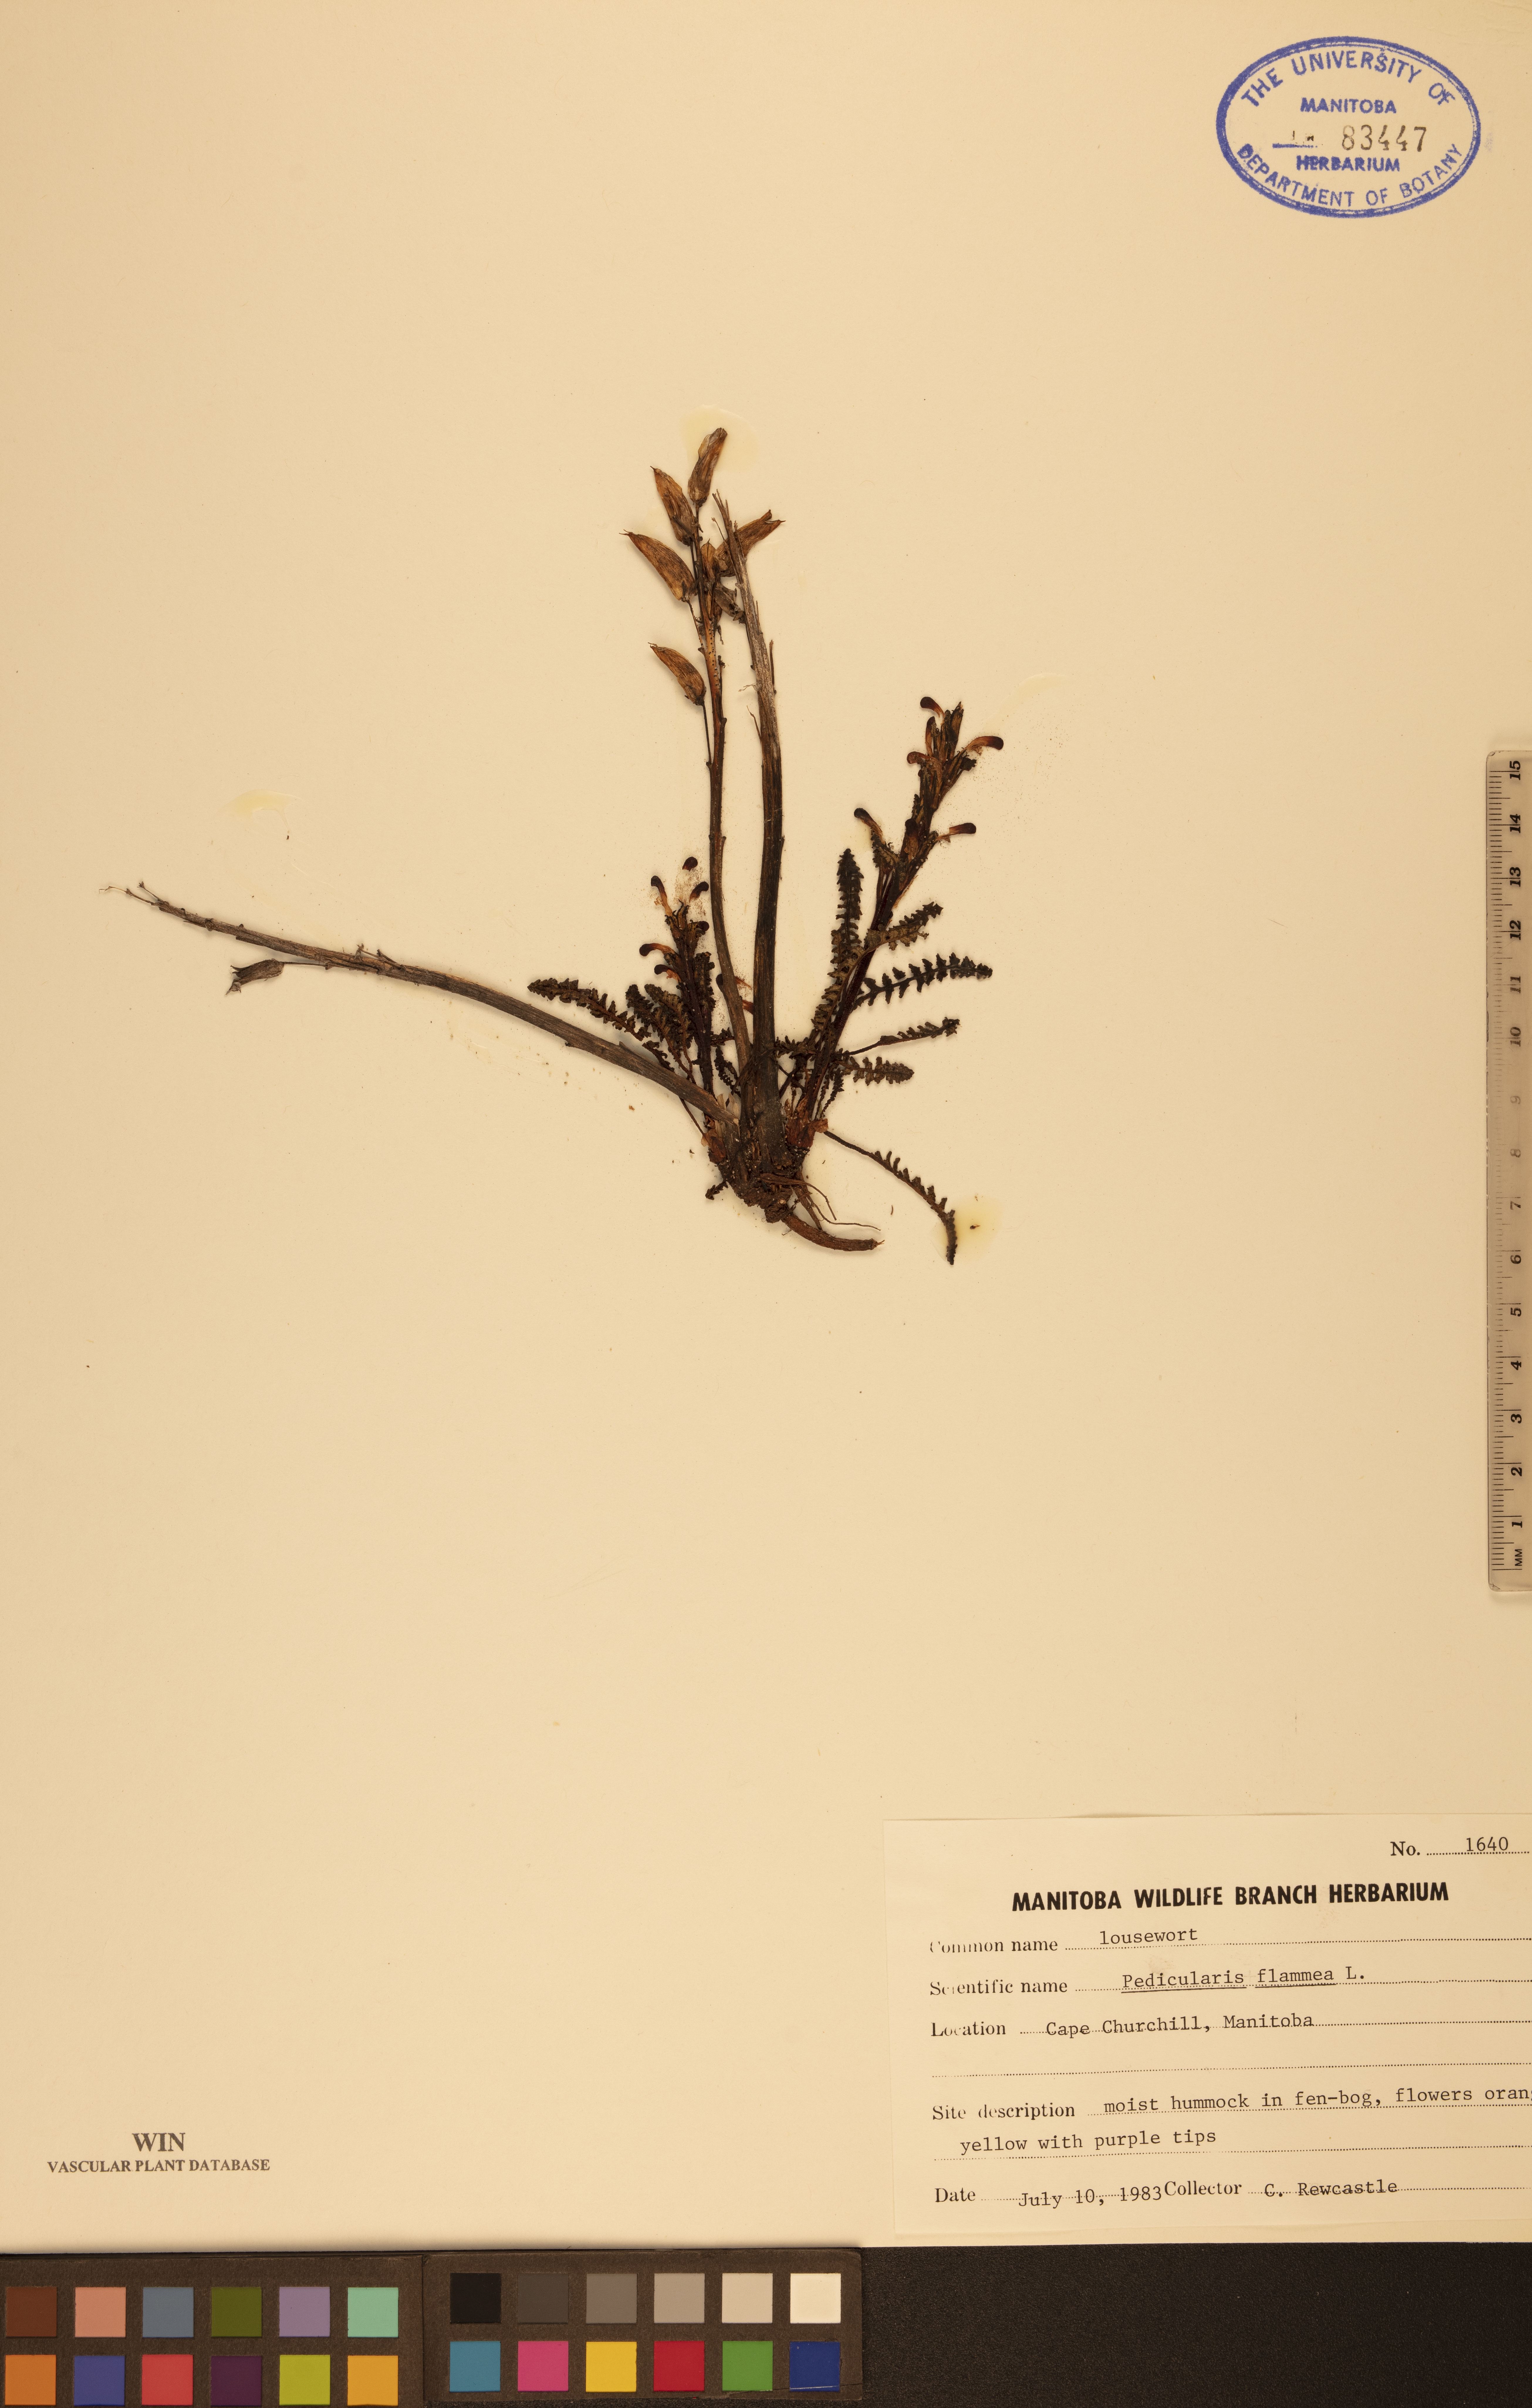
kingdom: Plantae
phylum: Tracheophyta
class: Magnoliopsida
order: Lamiales
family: Orobanchaceae
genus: Pedicularis
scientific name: Pedicularis flammea
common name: Flame-coloured lousewort
